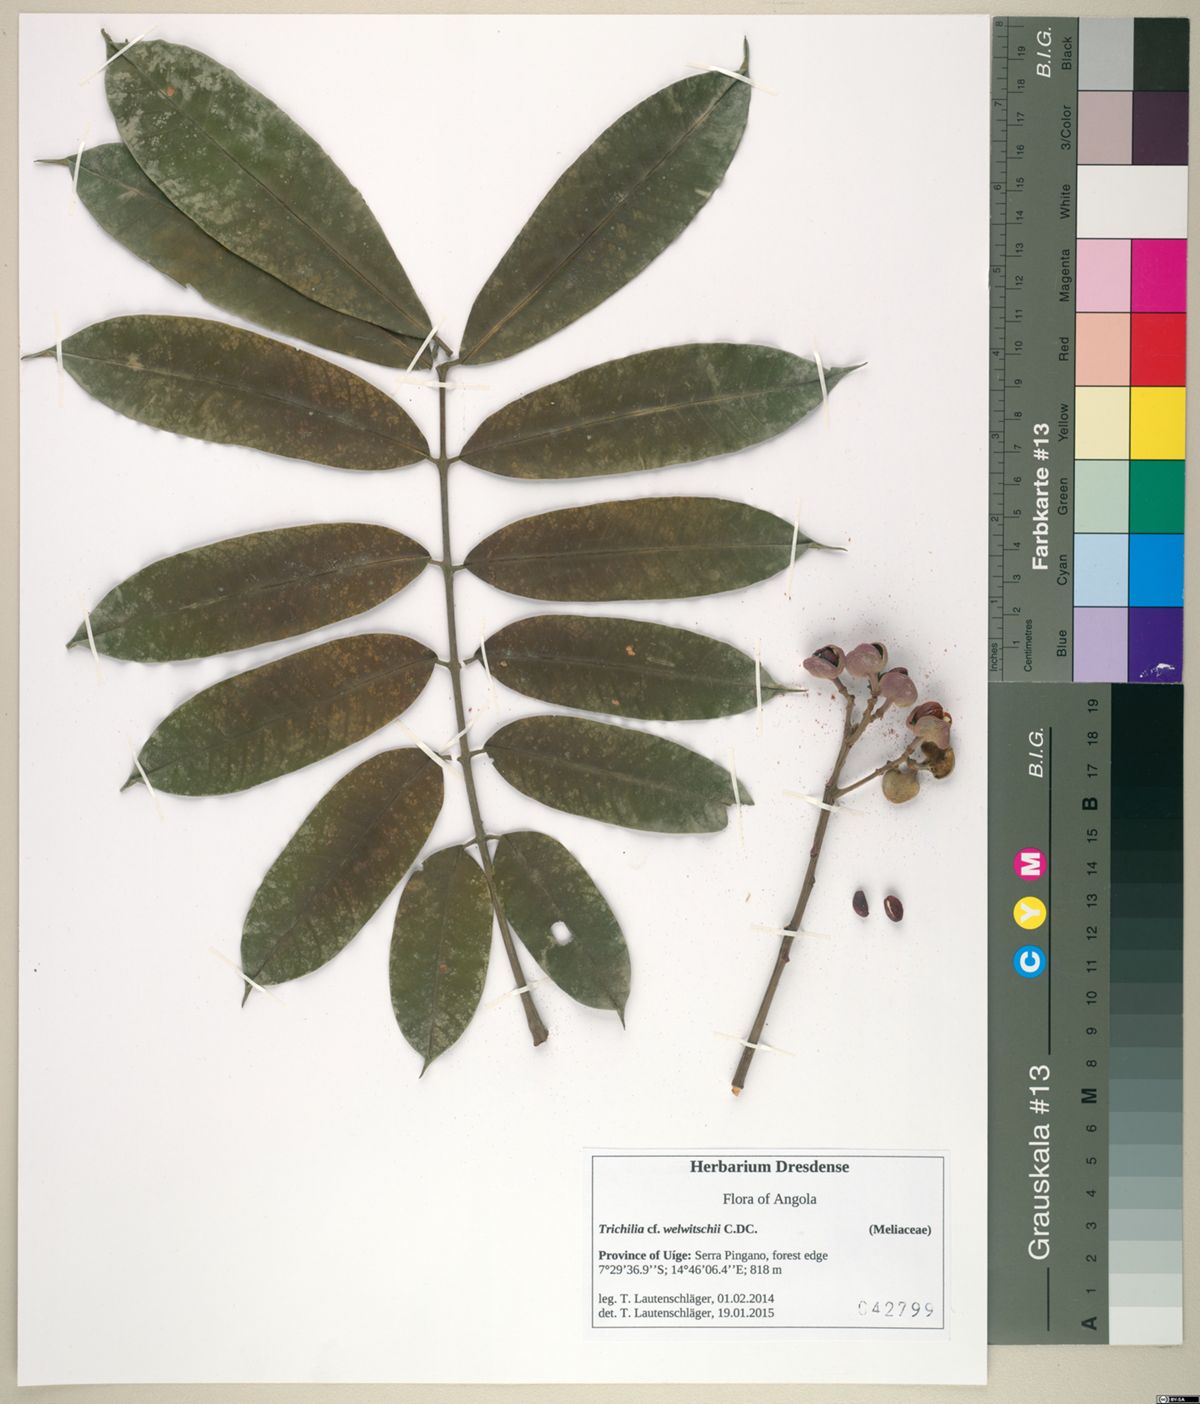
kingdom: Plantae
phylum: Tracheophyta
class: Magnoliopsida
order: Sapindales
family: Meliaceae
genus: Trichilia
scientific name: Trichilia welwitschii
